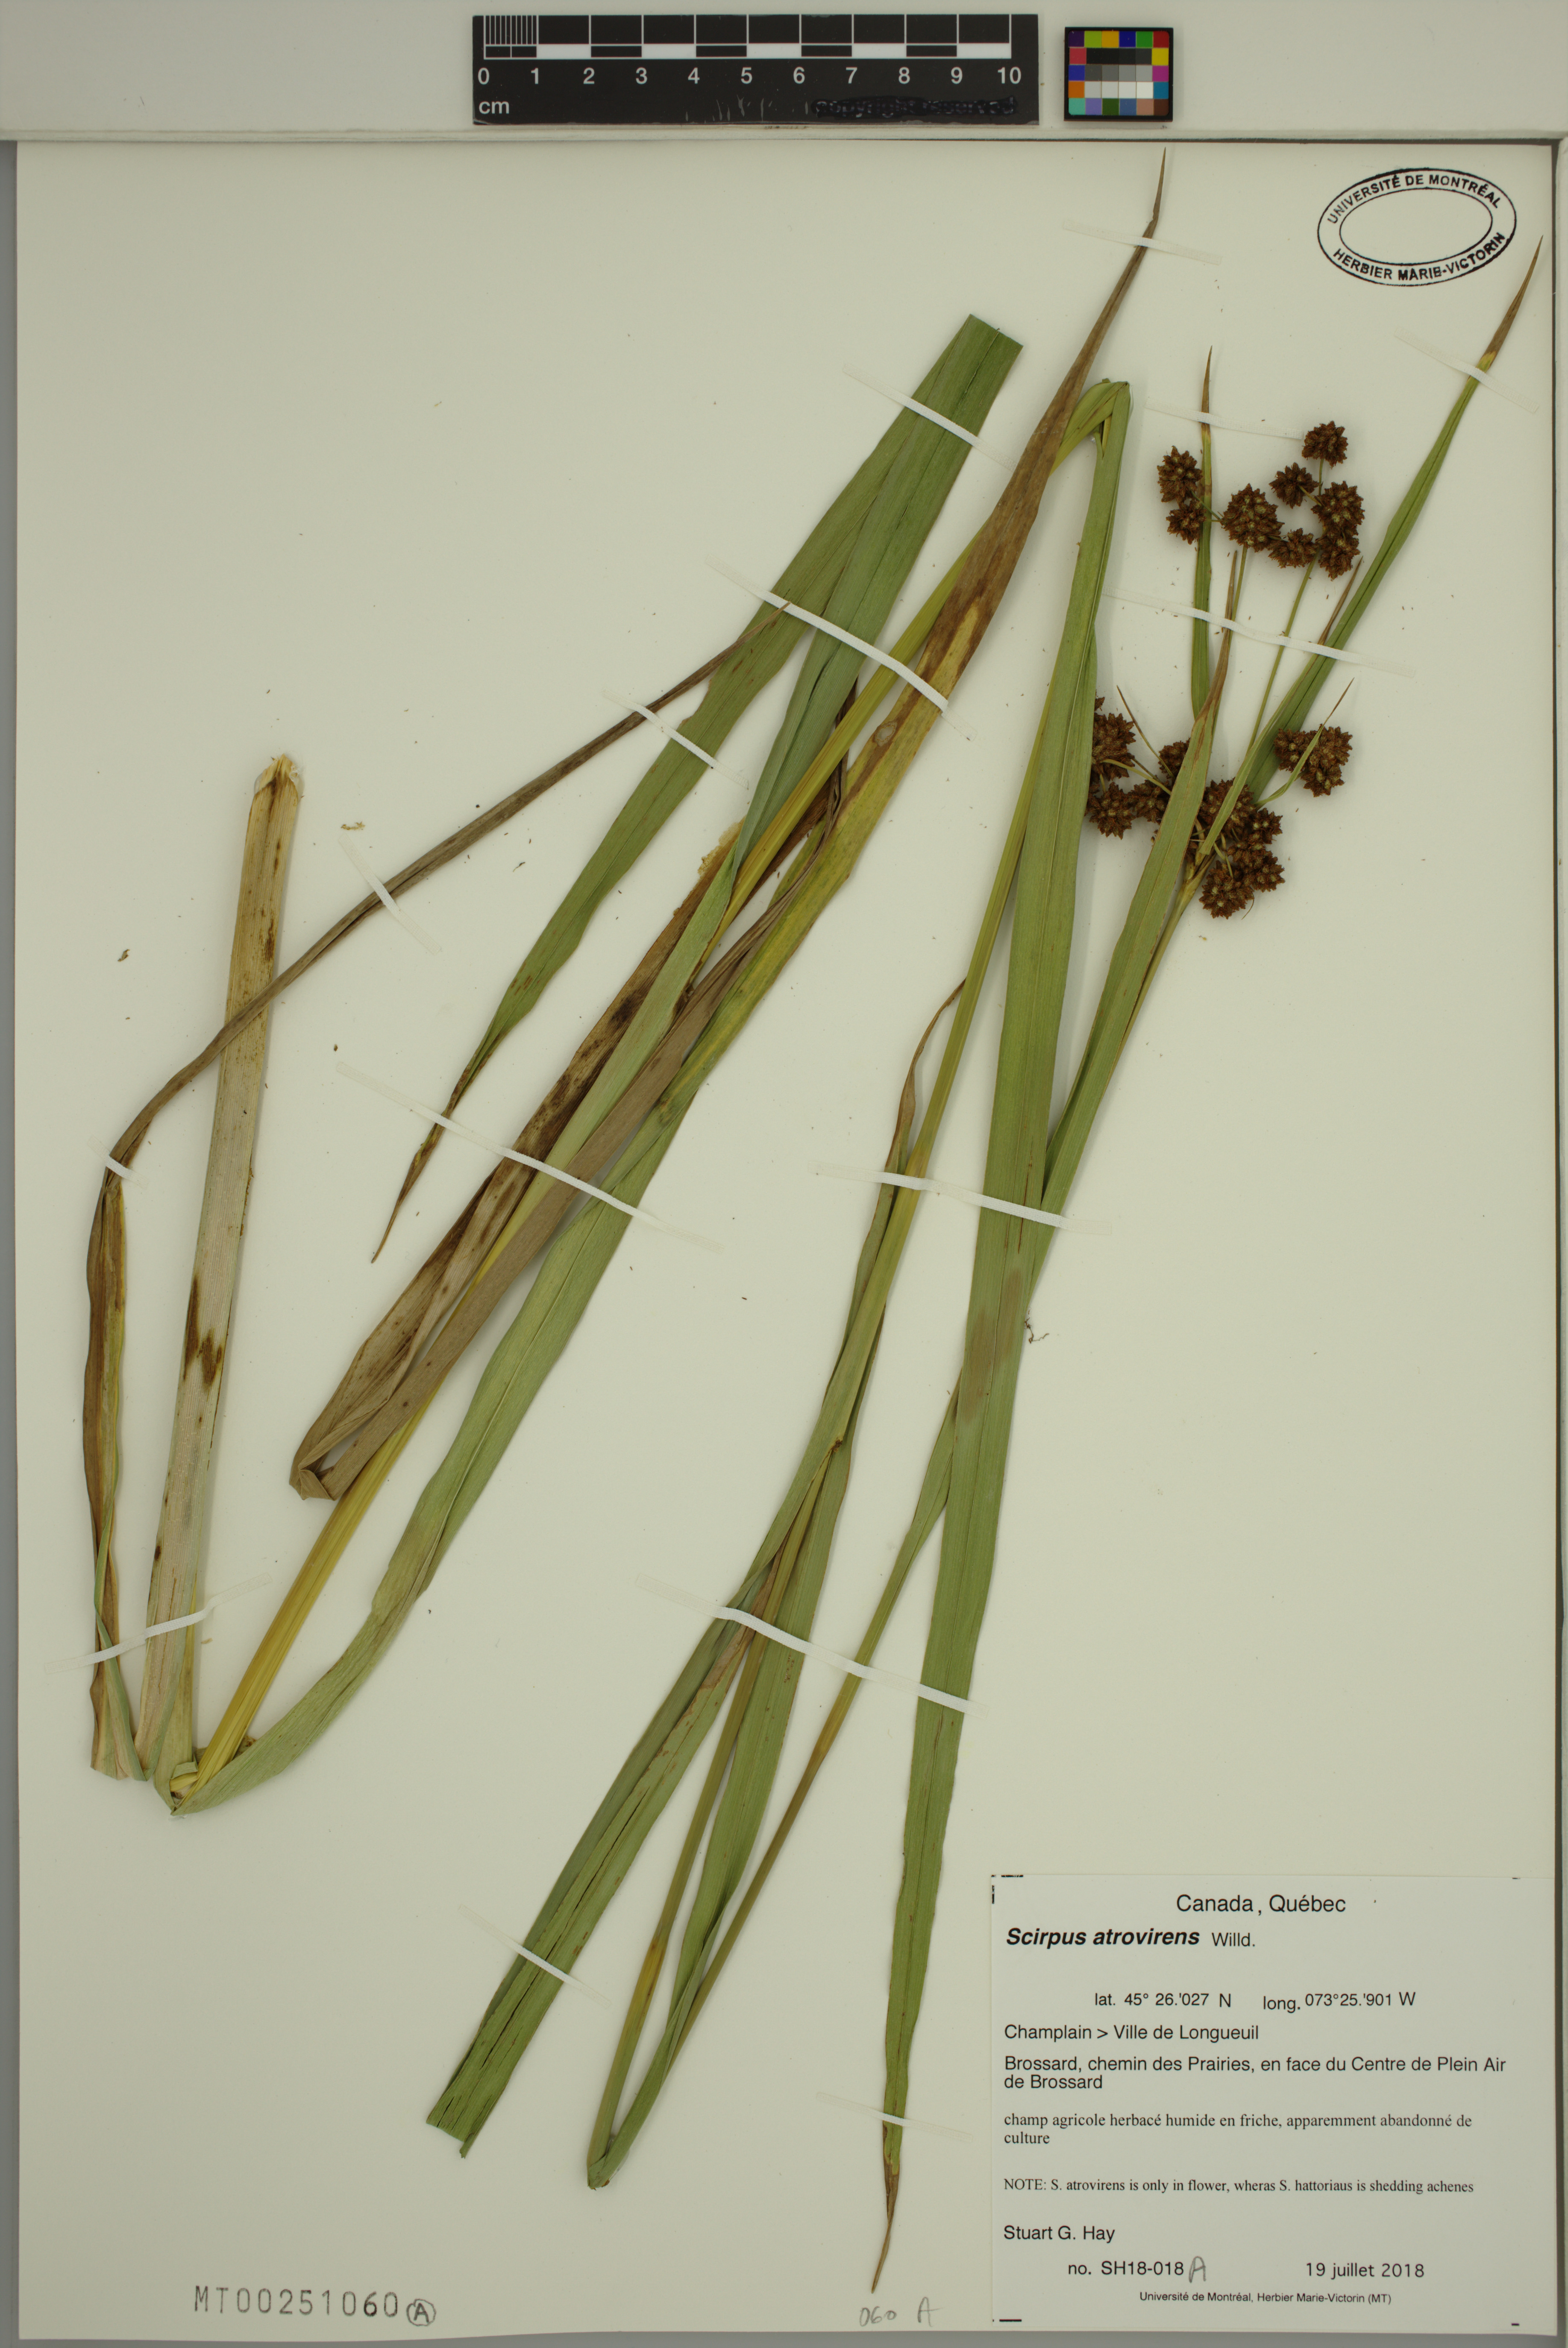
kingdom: Plantae
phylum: Tracheophyta
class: Liliopsida
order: Poales
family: Cyperaceae
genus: Scirpus
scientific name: Scirpus atrovirens
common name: Black bulrush
